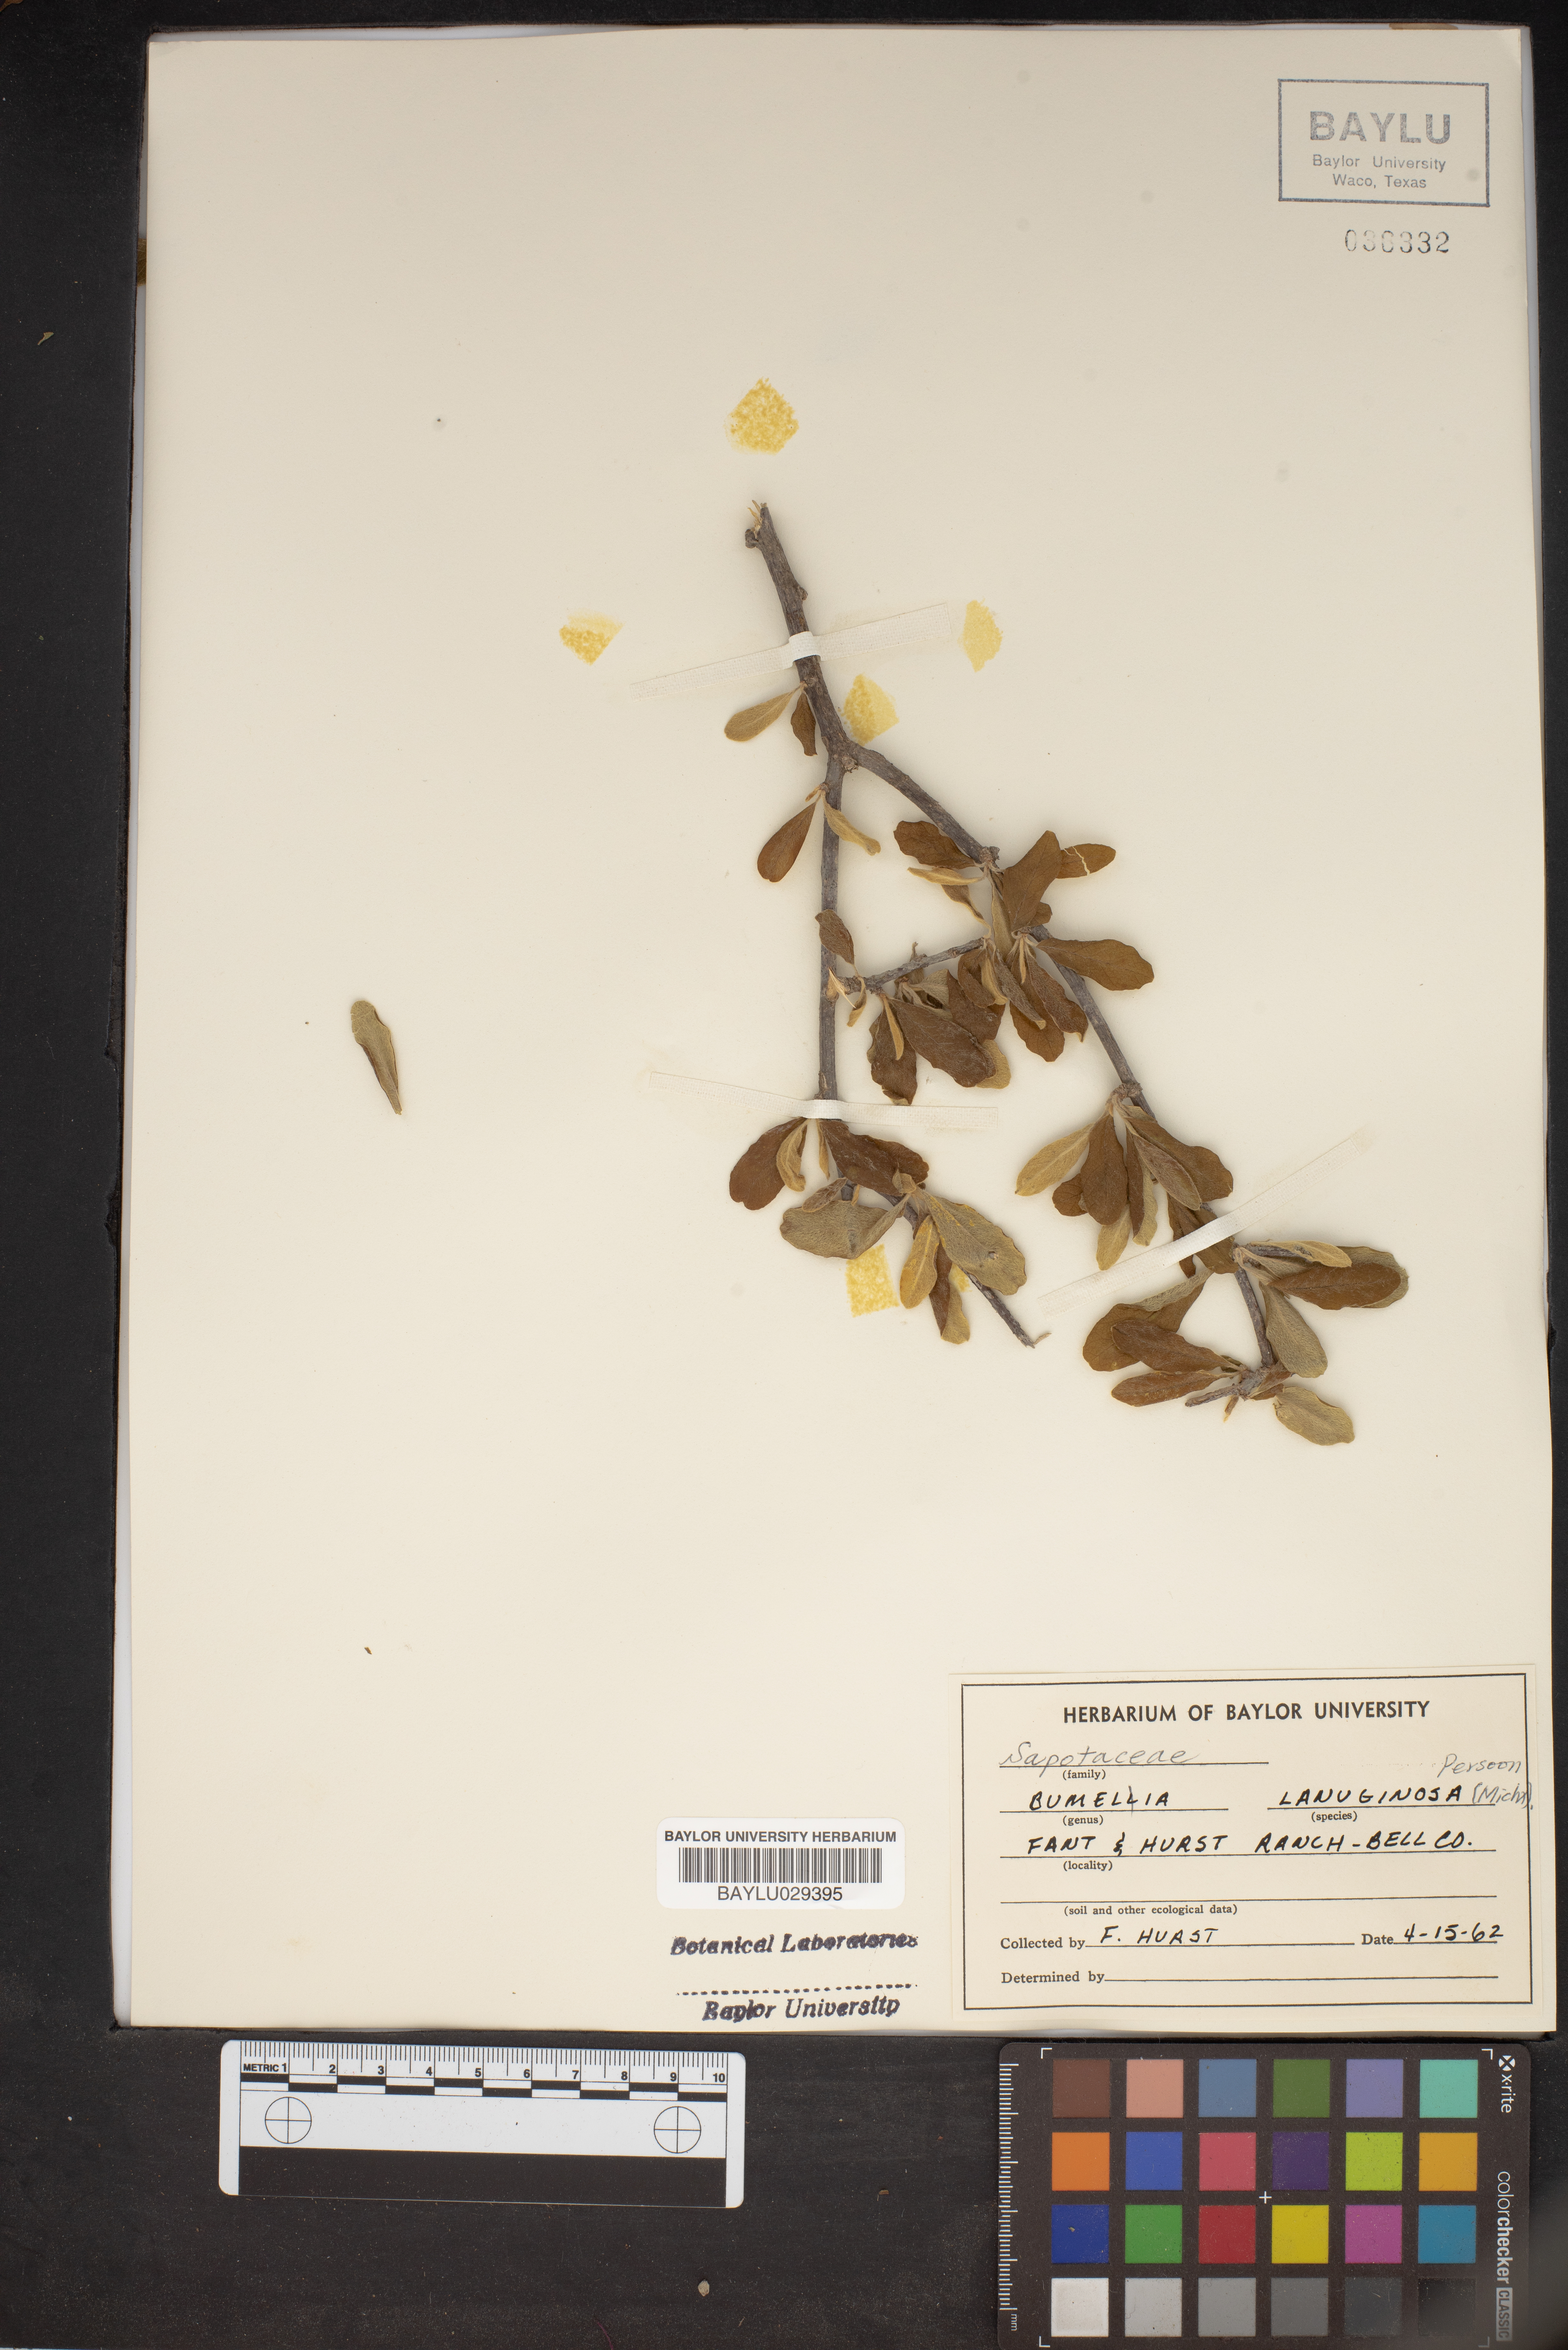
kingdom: Plantae
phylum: Tracheophyta
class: Magnoliopsida
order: Ericales
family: Sapotaceae
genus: Sideroxylon
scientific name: Sideroxylon lanuginosum
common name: Chittamwood
